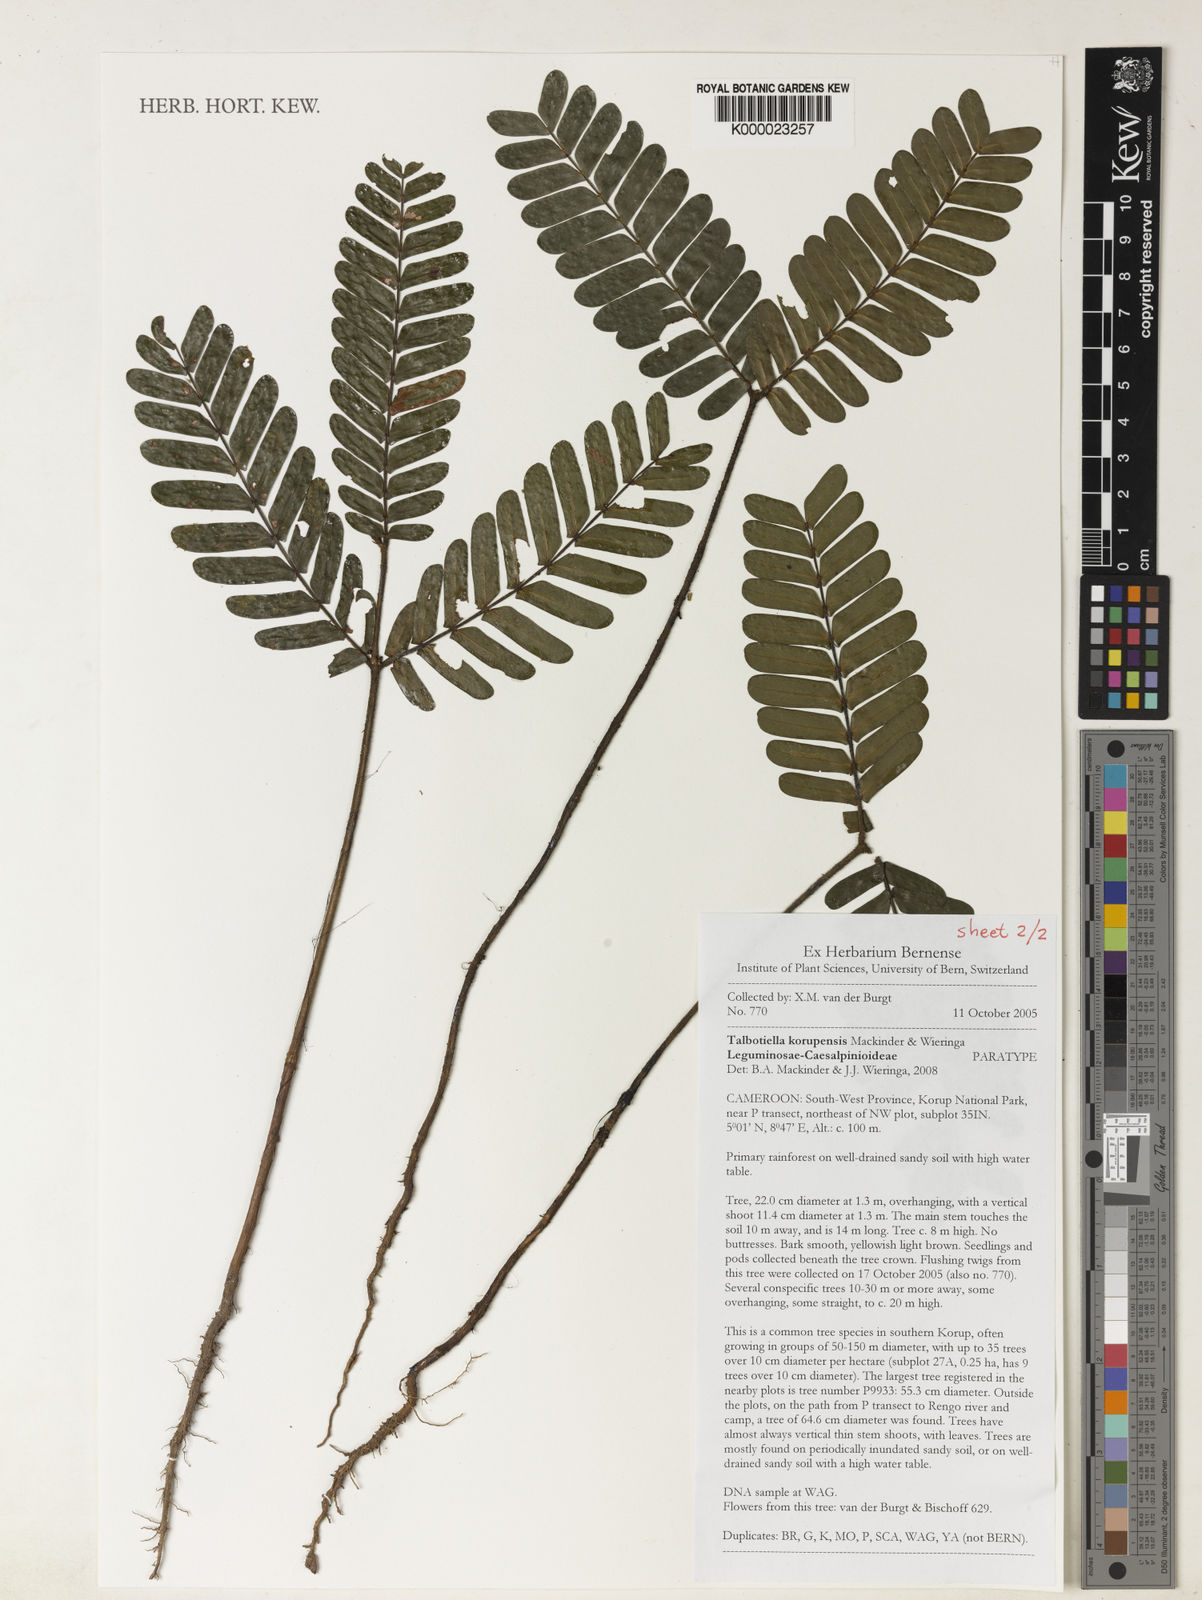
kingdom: Plantae
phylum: Tracheophyta
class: Magnoliopsida
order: Fabales
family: Fabaceae
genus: Talbotiella
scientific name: Talbotiella korupensis
